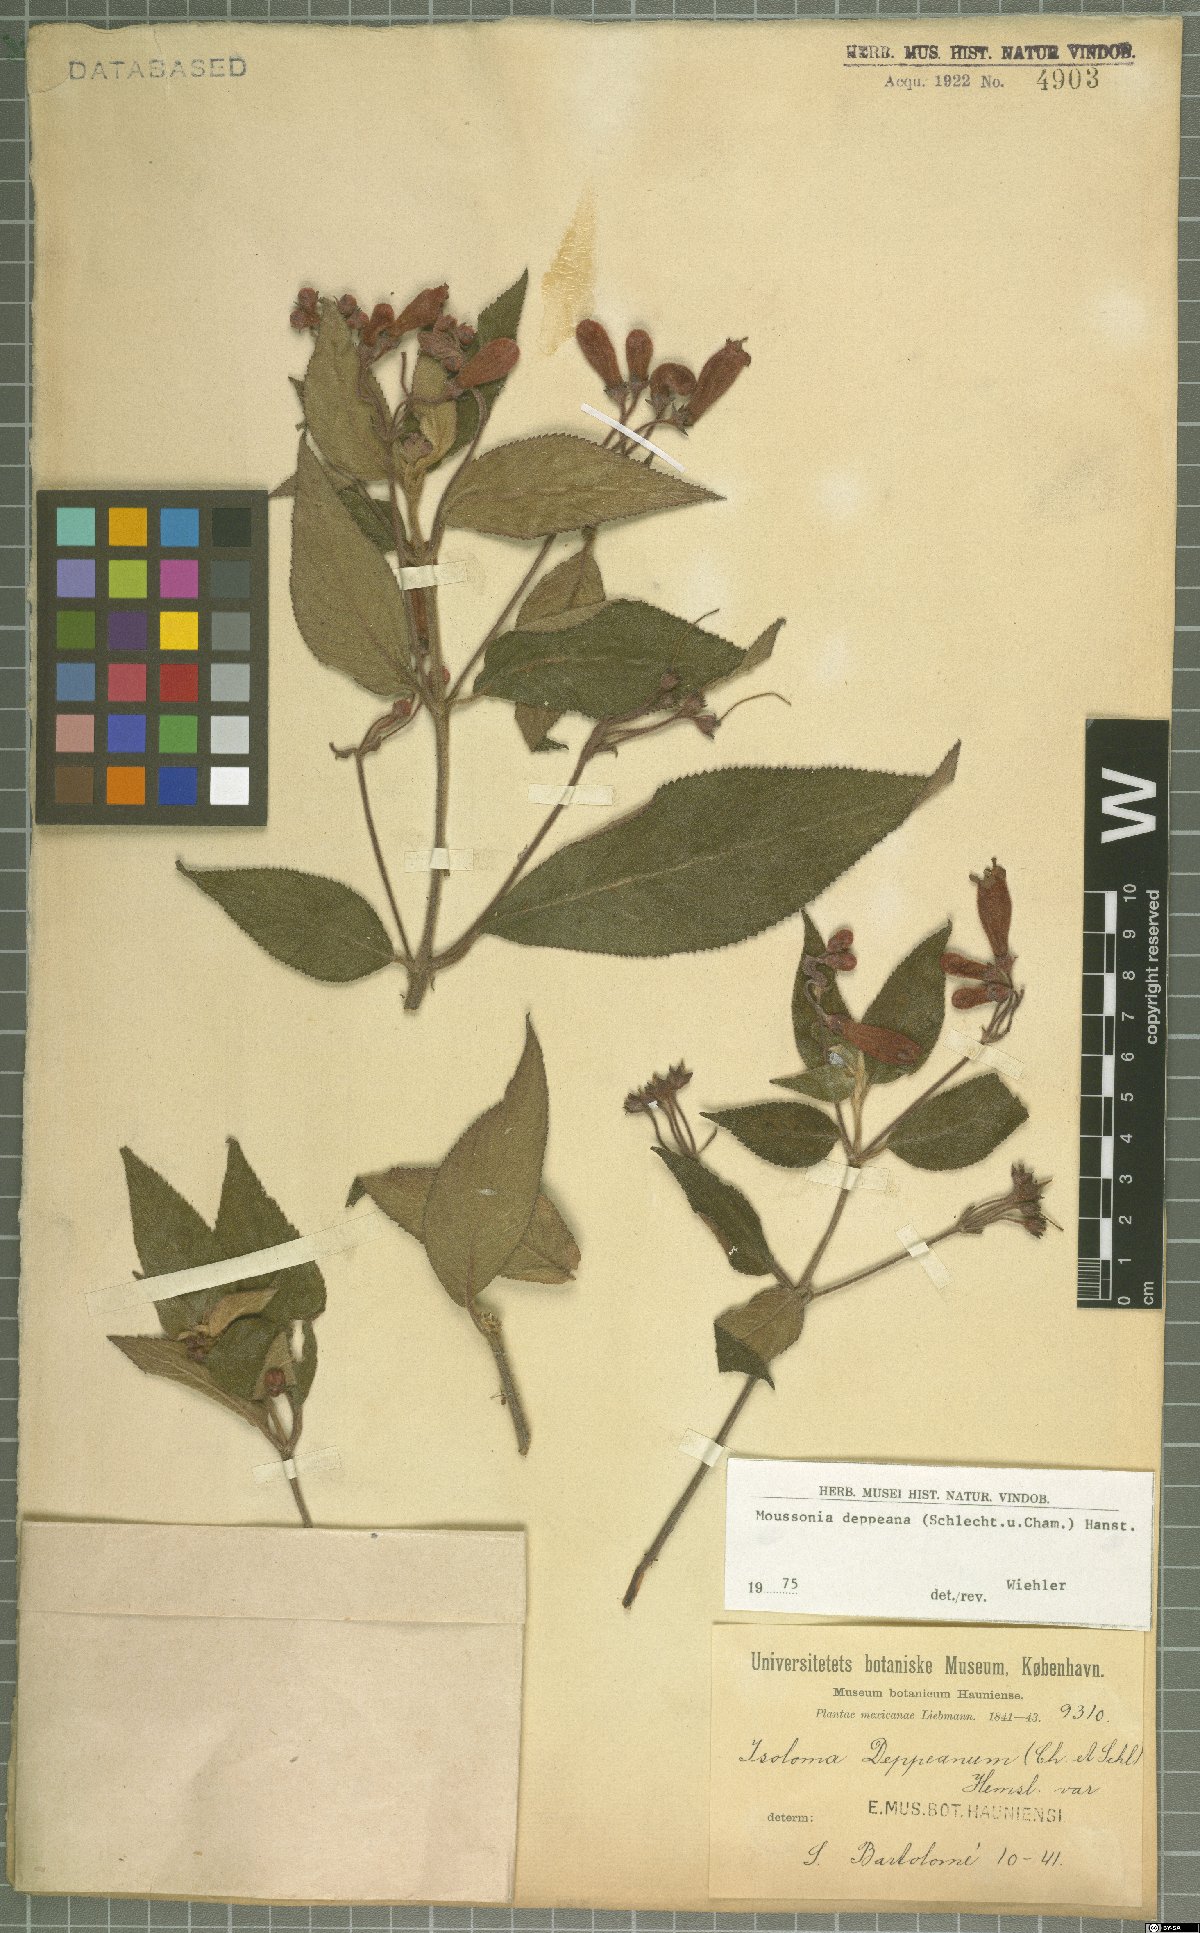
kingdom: Plantae
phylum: Tracheophyta
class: Magnoliopsida
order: Lamiales
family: Gesneriaceae
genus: Moussonia
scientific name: Moussonia deppeana
